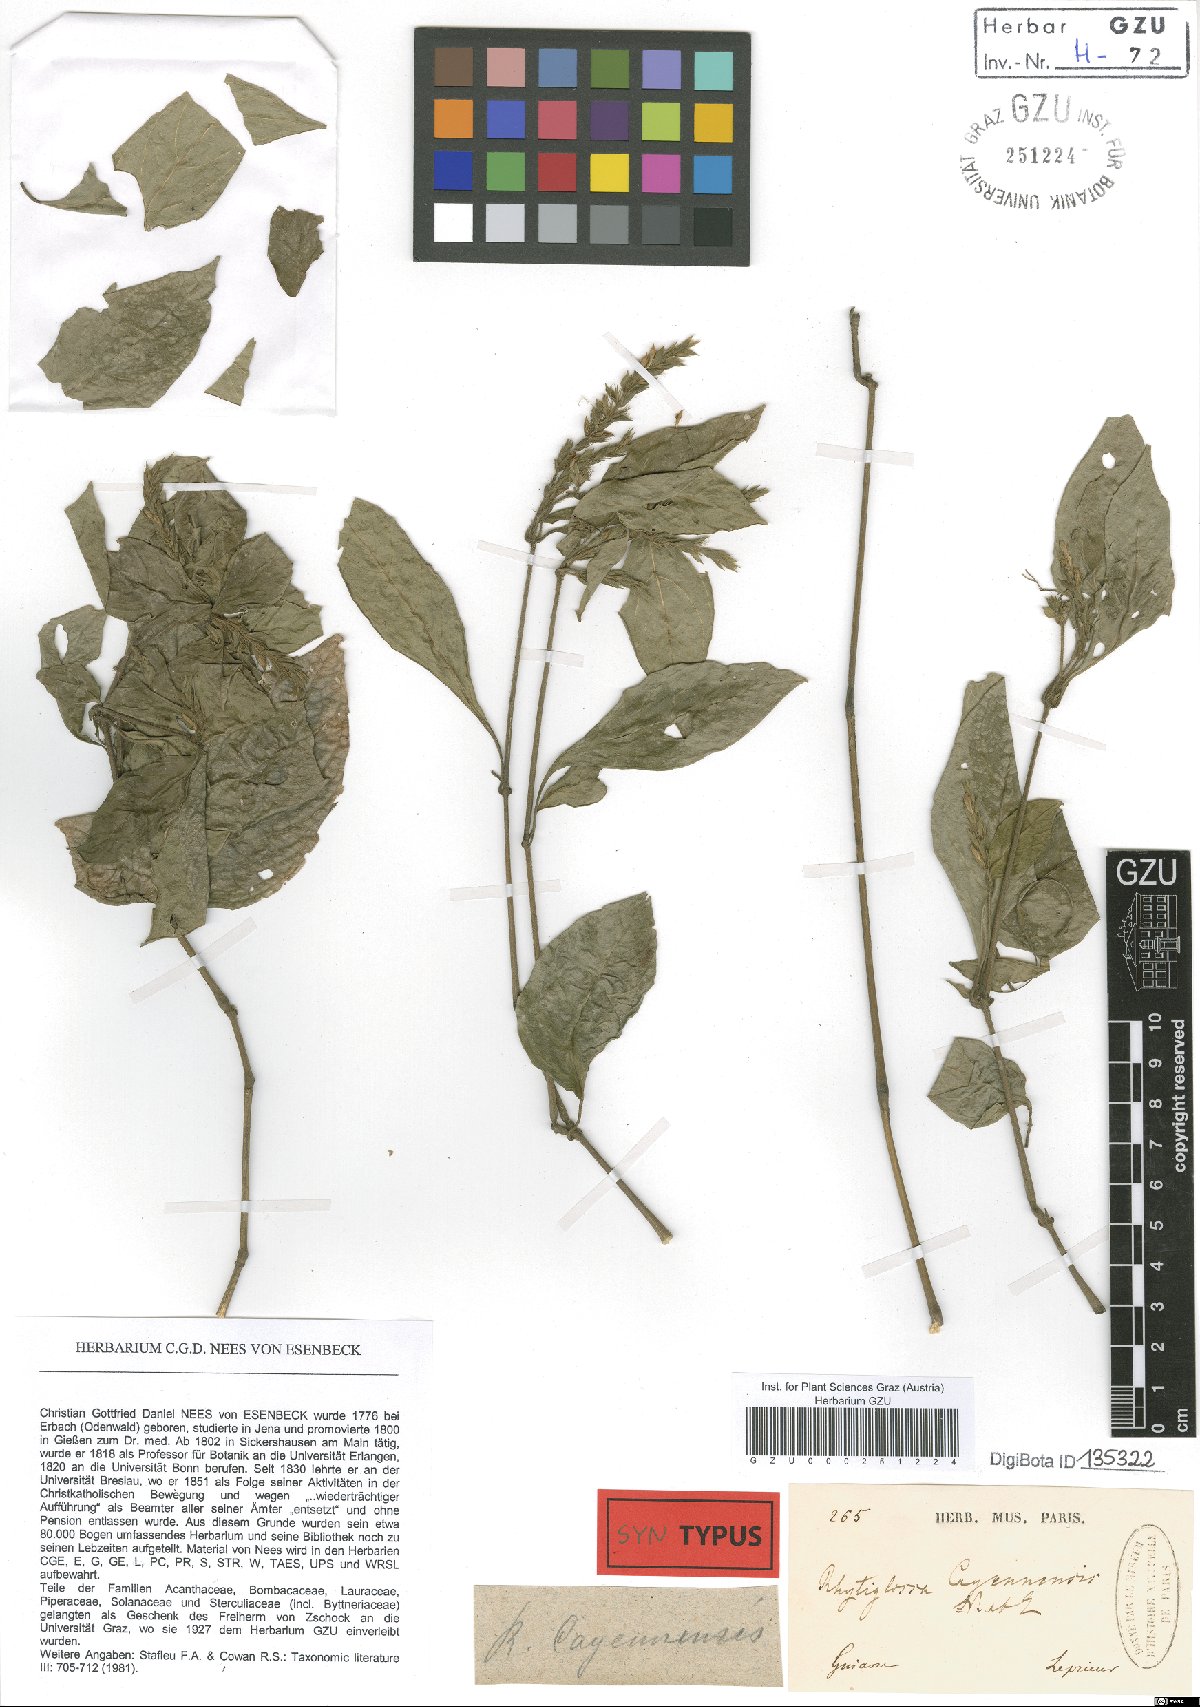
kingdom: Plantae
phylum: Tracheophyta
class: Magnoliopsida
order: Lamiales
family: Acanthaceae
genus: Dianthera
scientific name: Dianthera cayennensis
